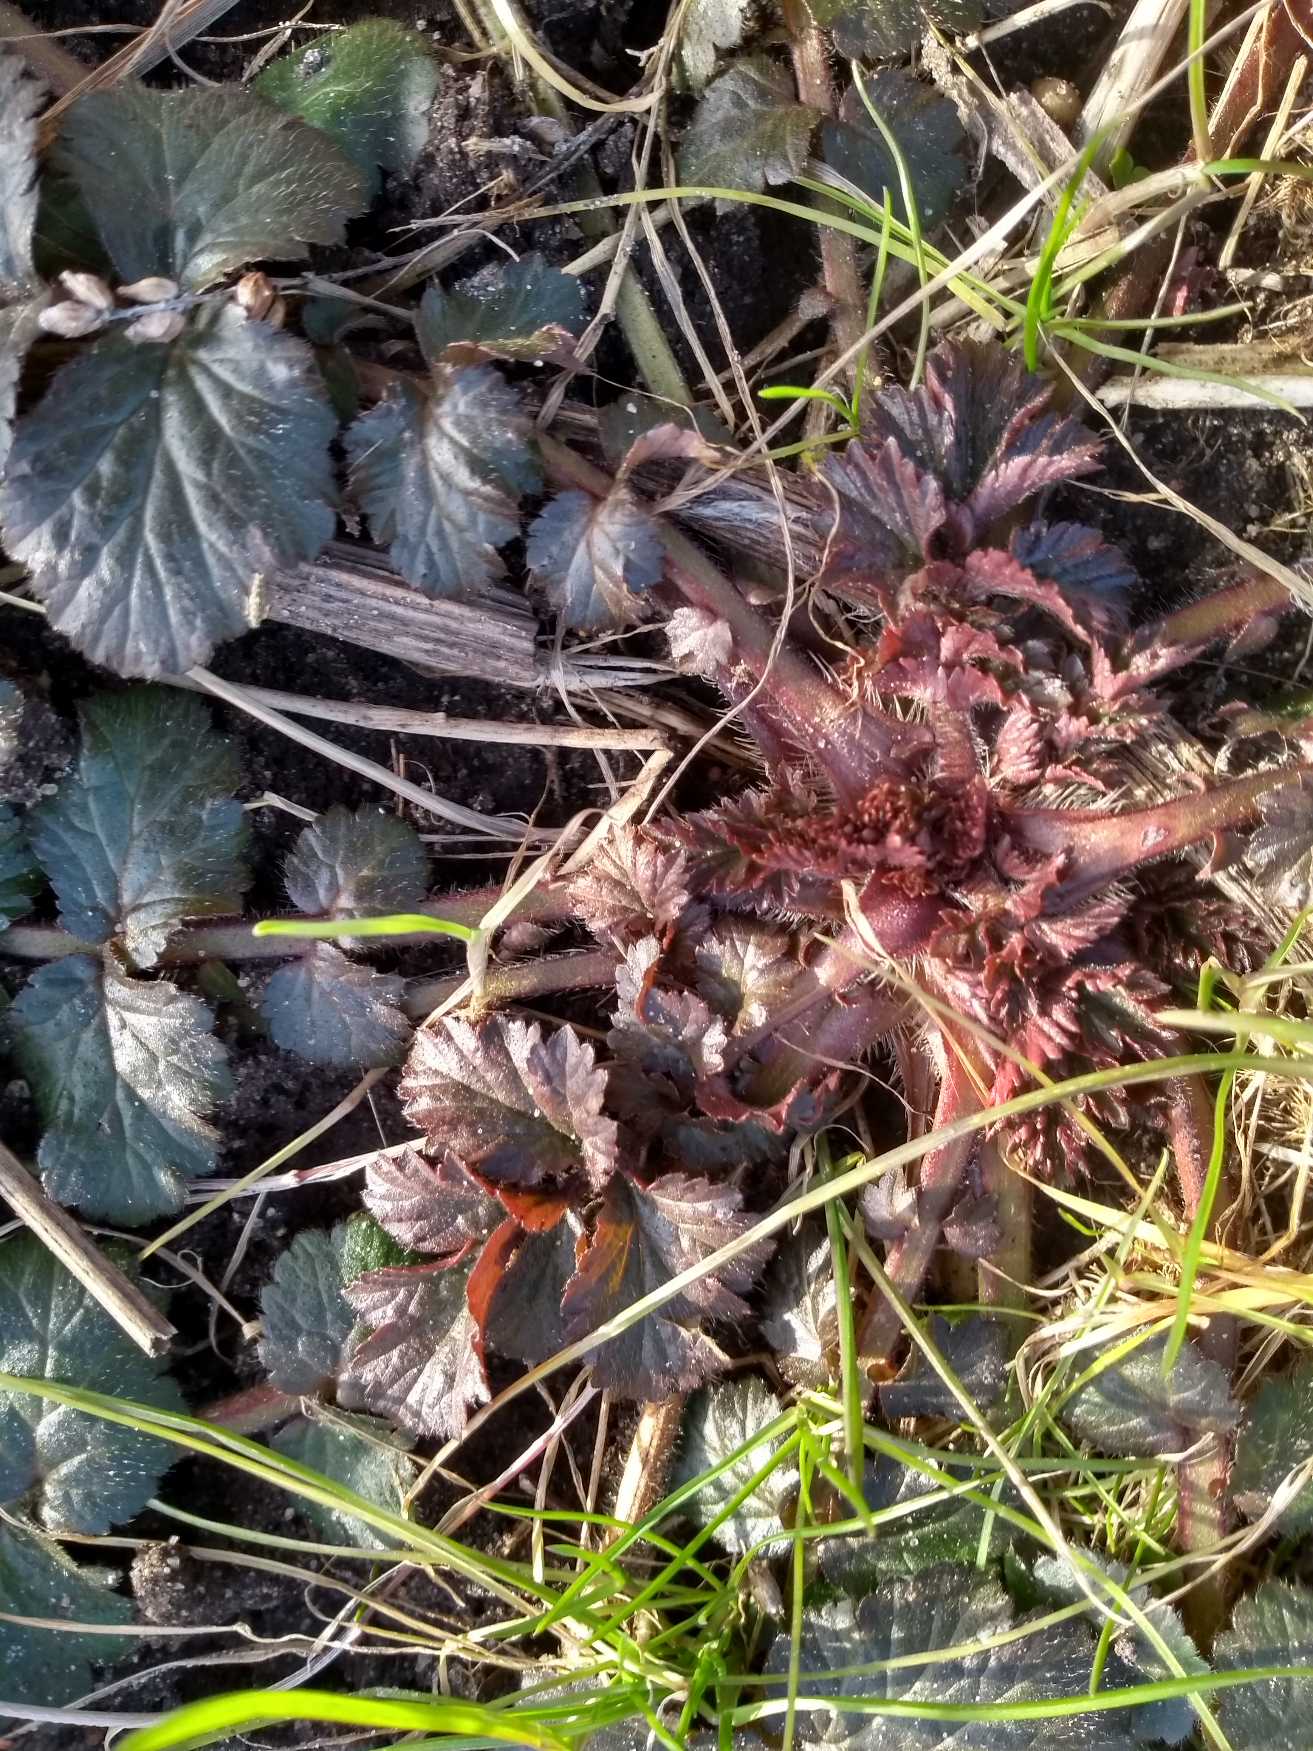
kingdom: Plantae
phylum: Tracheophyta
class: Magnoliopsida
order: Rosales
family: Rosaceae
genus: Geum
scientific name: Geum urbanum
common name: Feber-nellikerod
